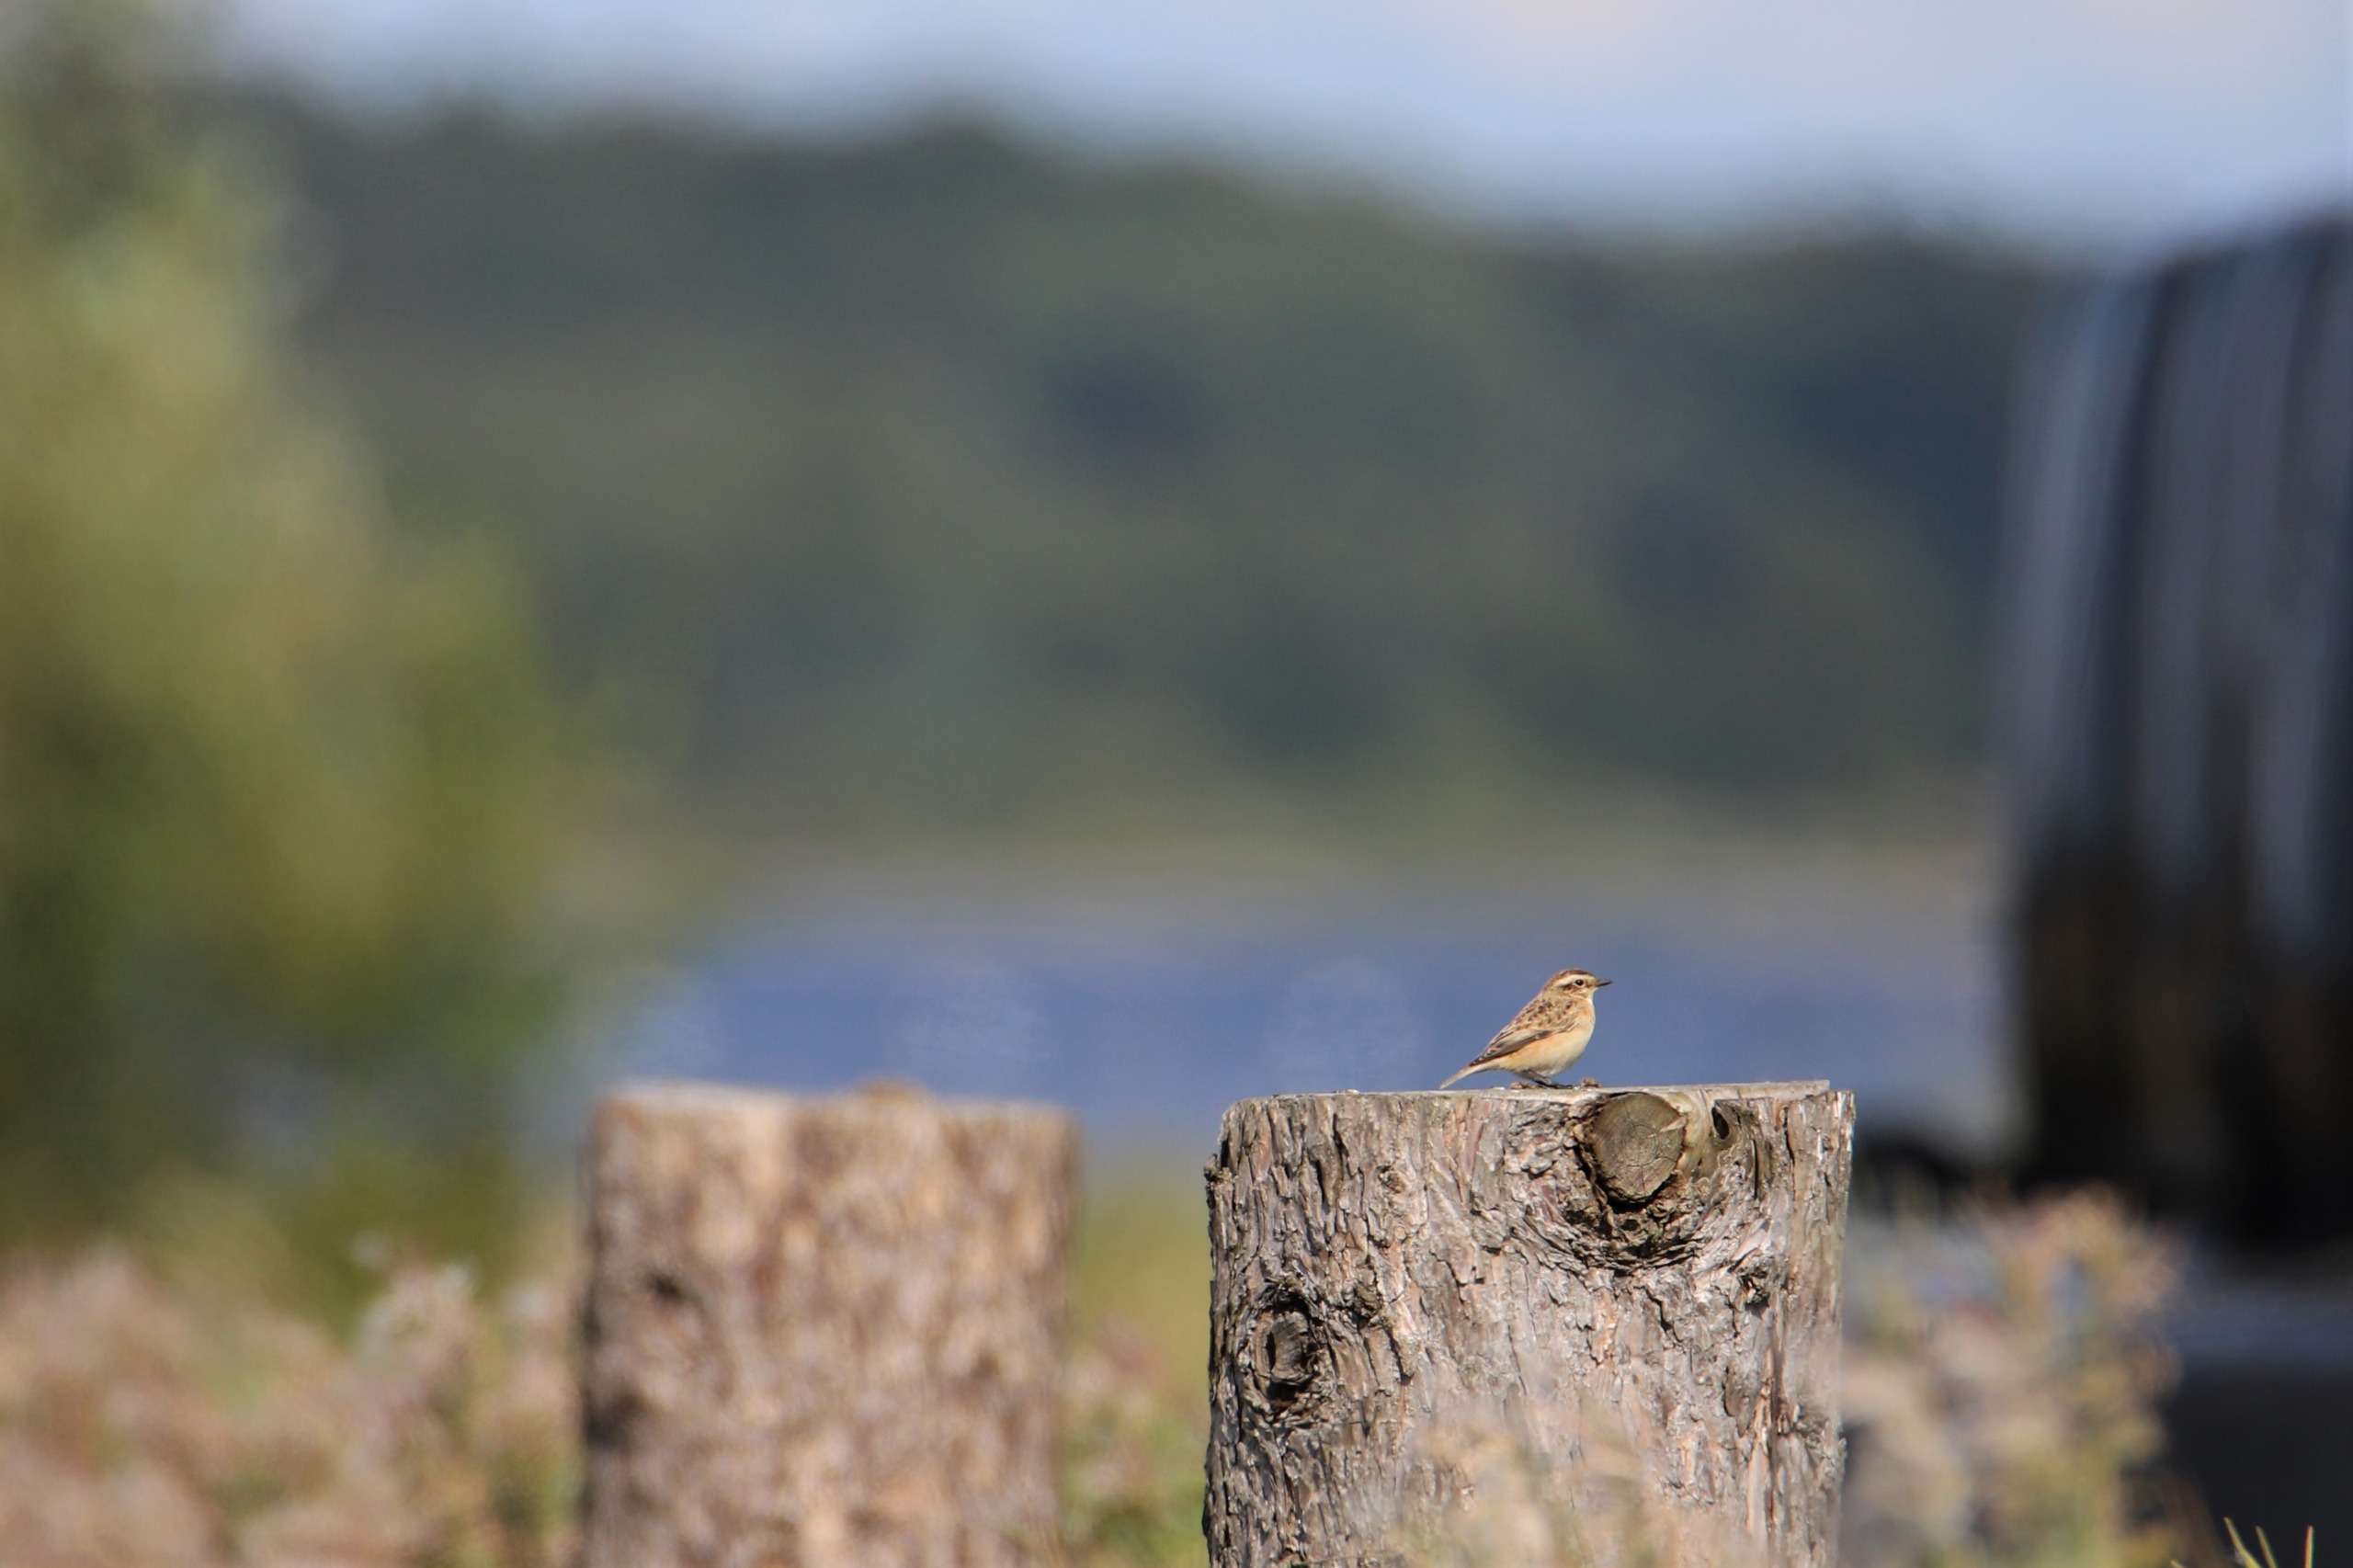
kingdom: Animalia
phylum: Chordata
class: Aves
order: Passeriformes
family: Muscicapidae
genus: Saxicola
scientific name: Saxicola rubetra
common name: Bynkefugl
